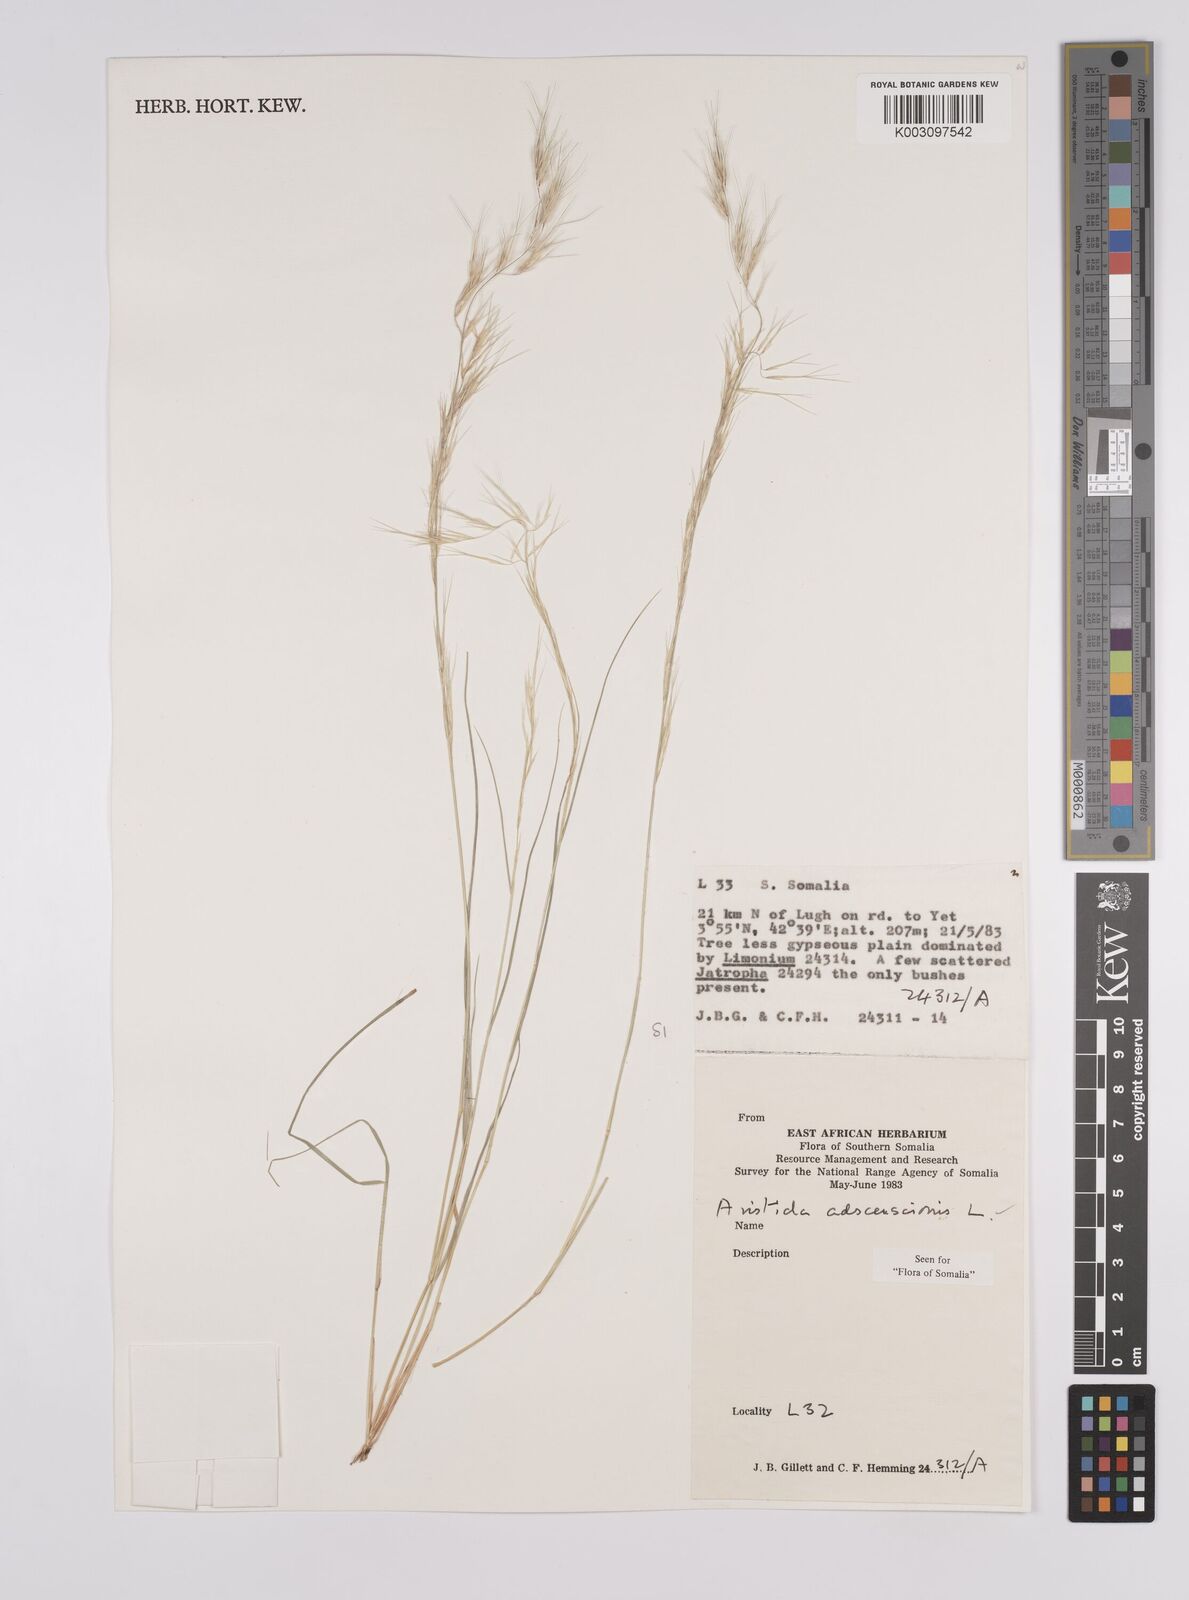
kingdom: Plantae
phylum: Tracheophyta
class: Liliopsida
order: Poales
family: Poaceae
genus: Aristida
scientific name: Aristida laevis
